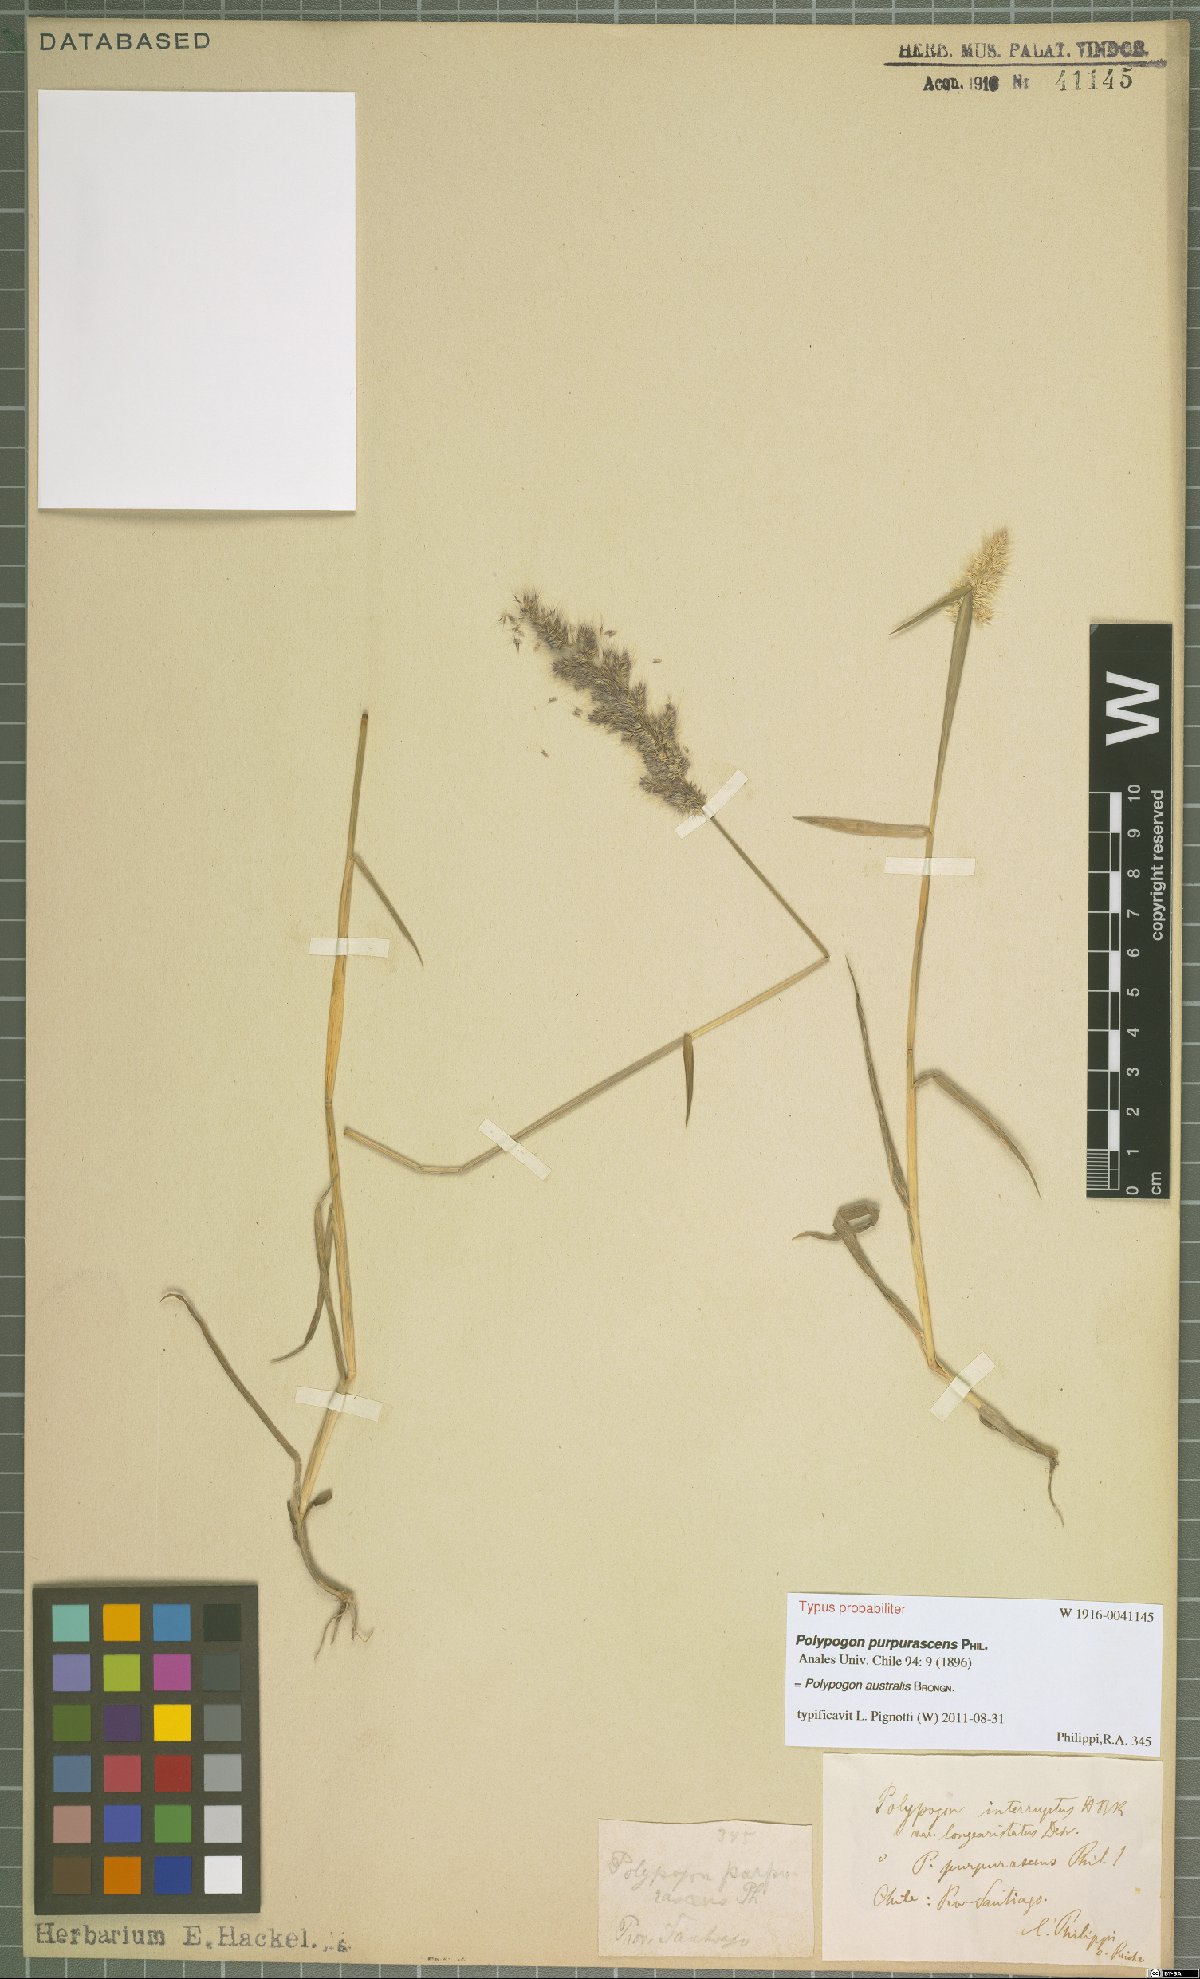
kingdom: Plantae
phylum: Tracheophyta
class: Liliopsida
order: Poales
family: Poaceae
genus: Polypogon
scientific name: Polypogon australis
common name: Chilean rabbitsfoot grass
